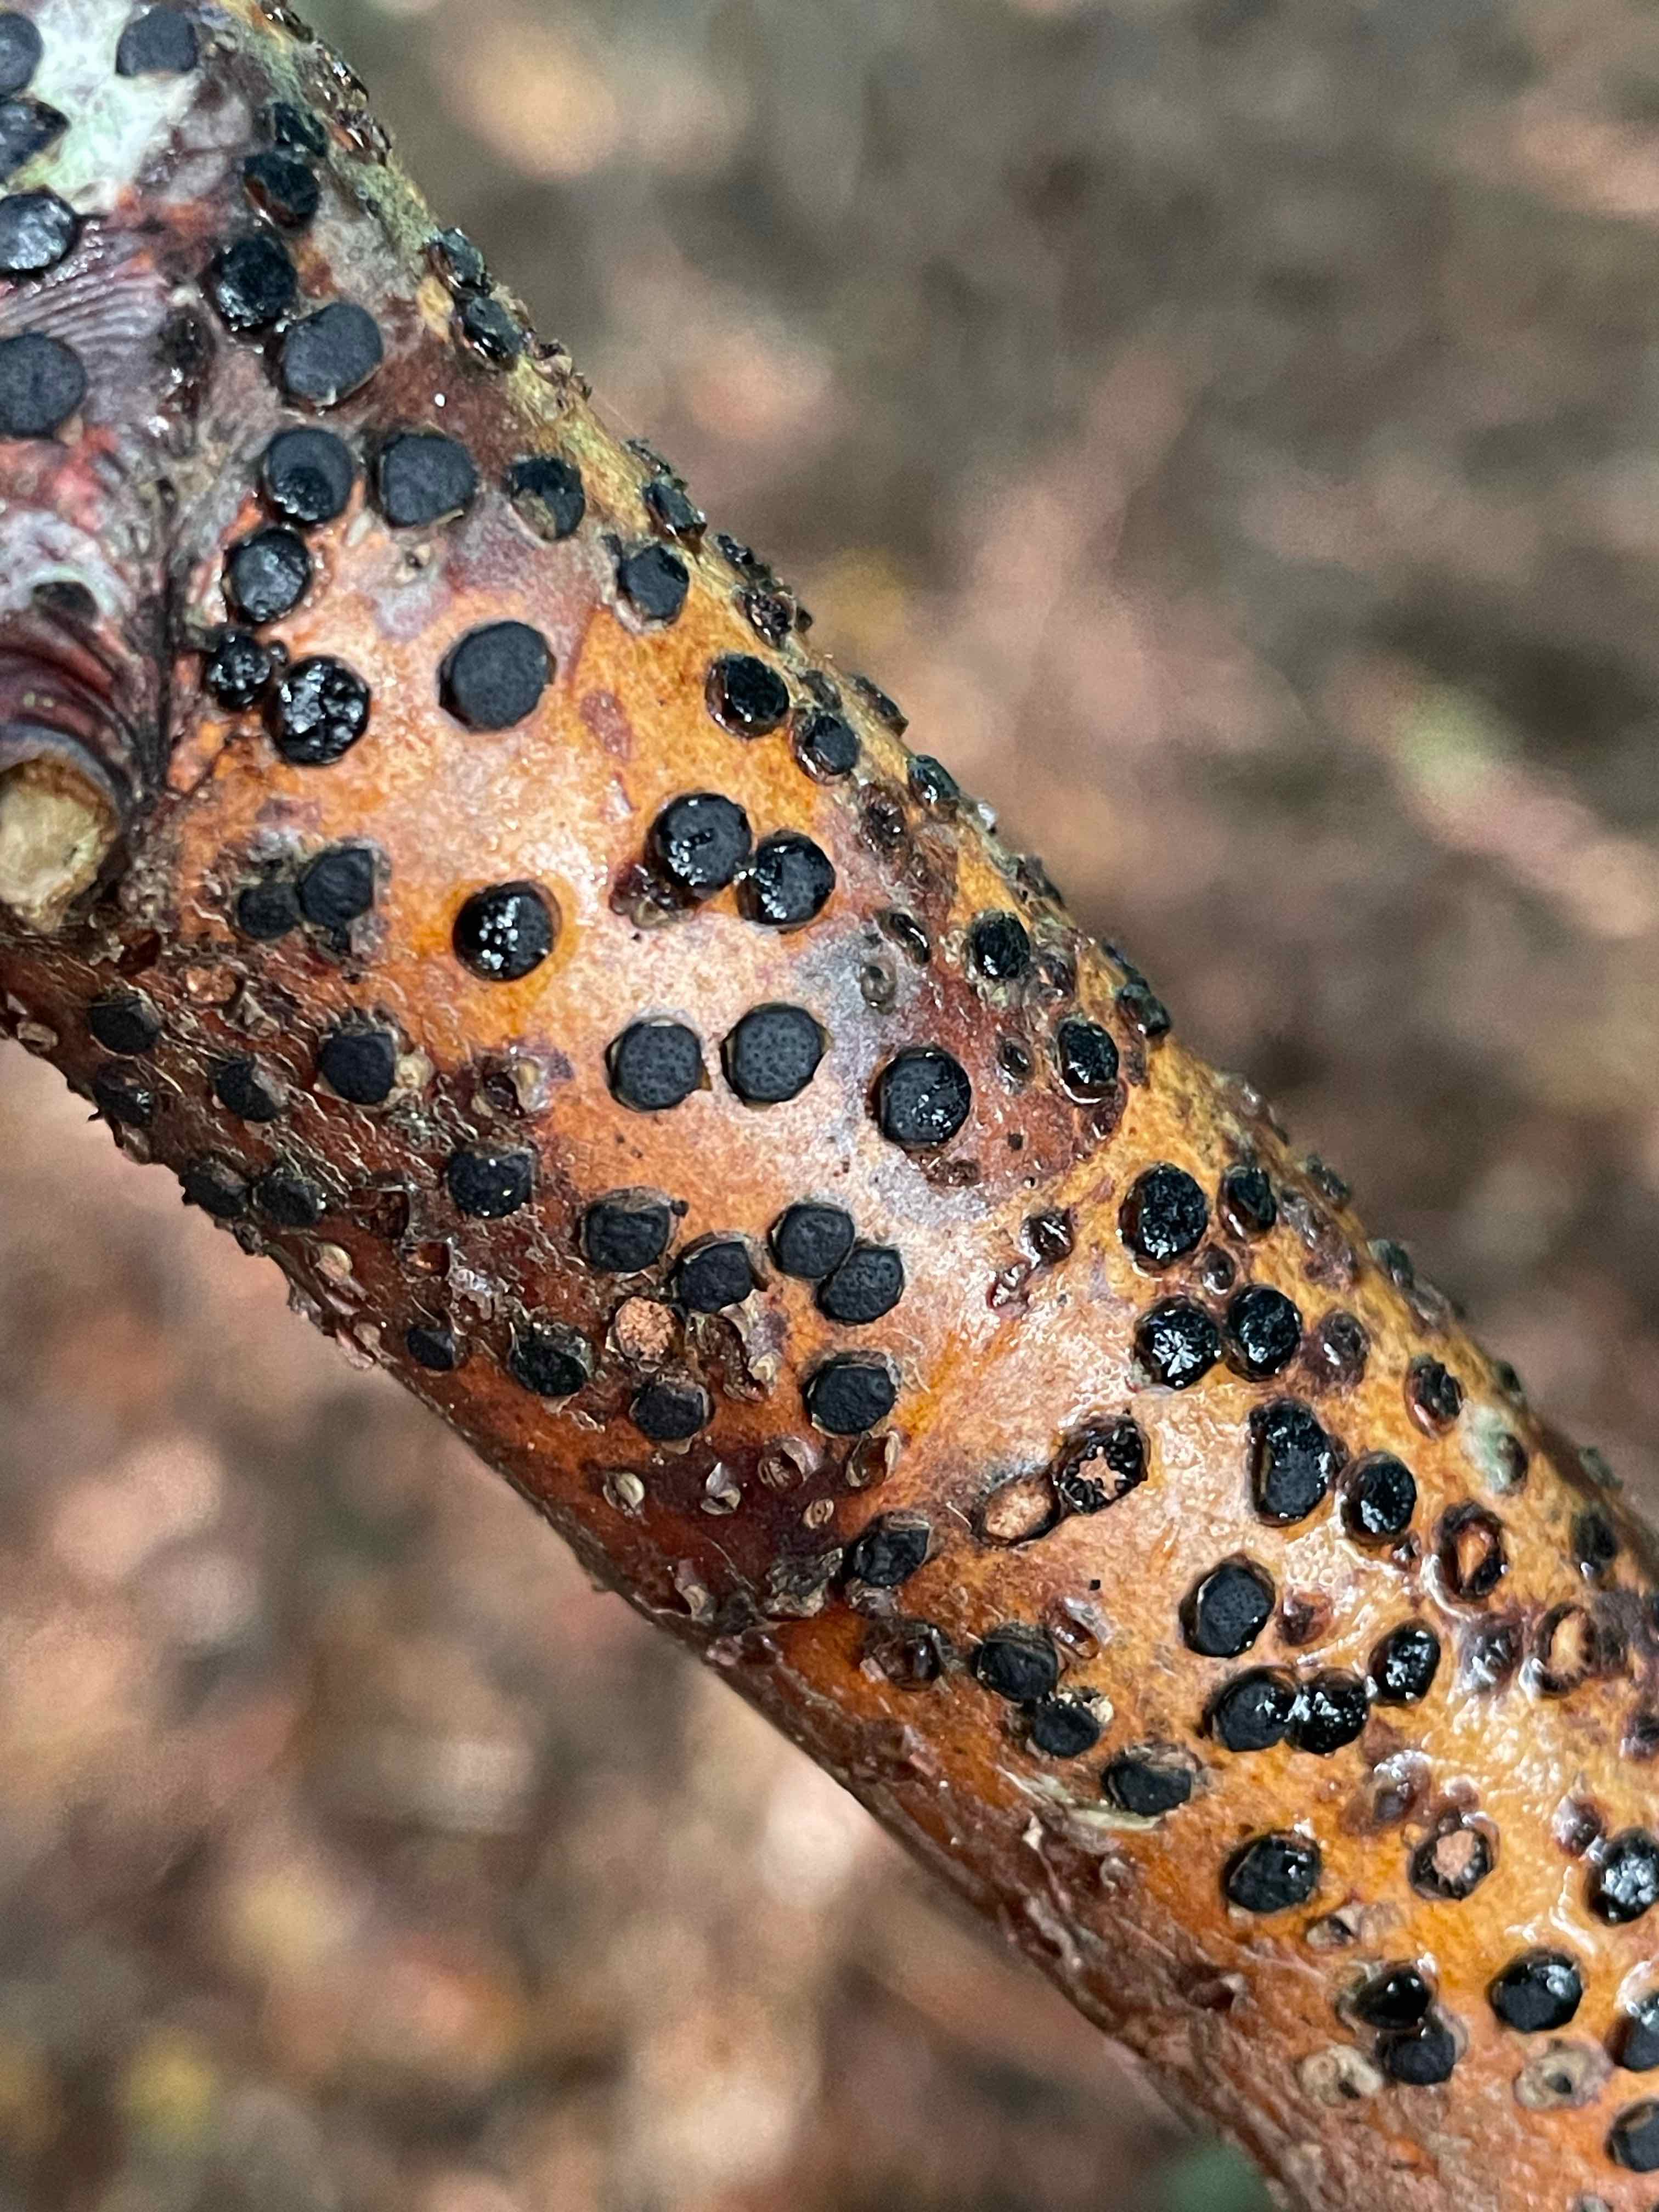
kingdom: Fungi
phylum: Ascomycota
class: Sordariomycetes
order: Xylariales
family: Diatrypaceae
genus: Diatrype
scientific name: Diatrype disciformis
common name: kant-kulskorpe
